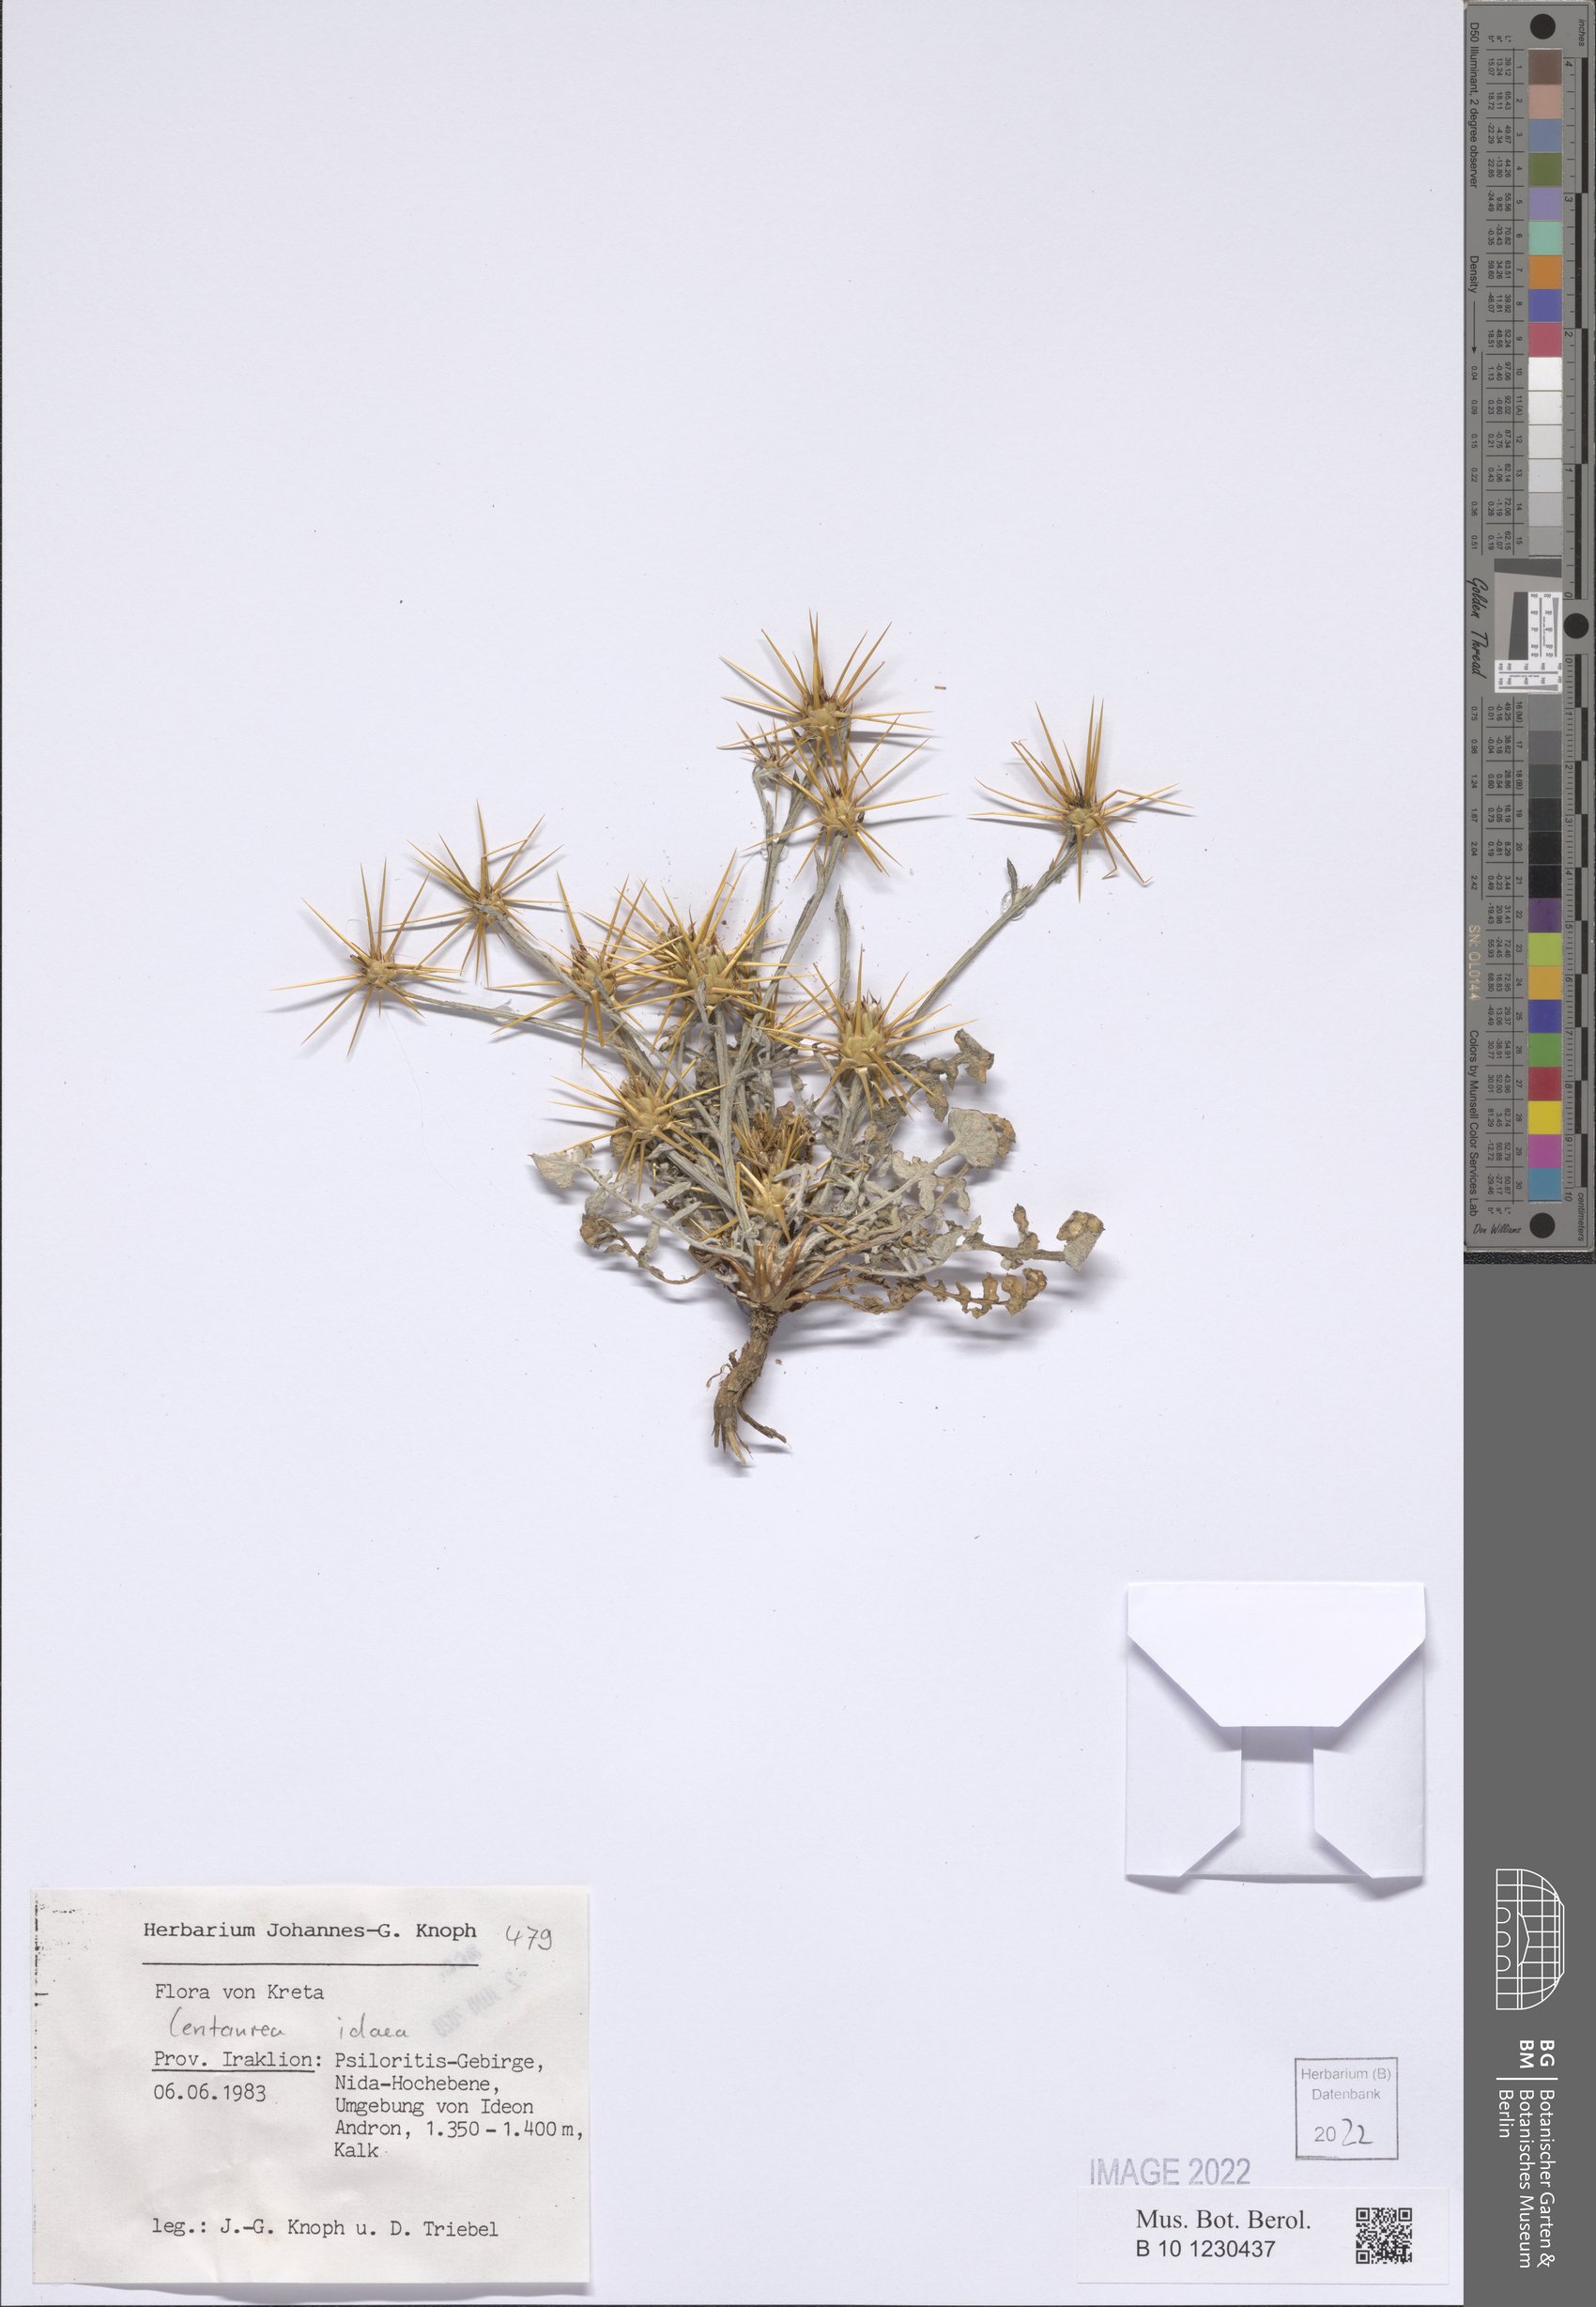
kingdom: Plantae
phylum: Tracheophyta
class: Magnoliopsida
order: Asterales
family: Asteraceae
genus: Centaurea
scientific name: Centaurea idaea
